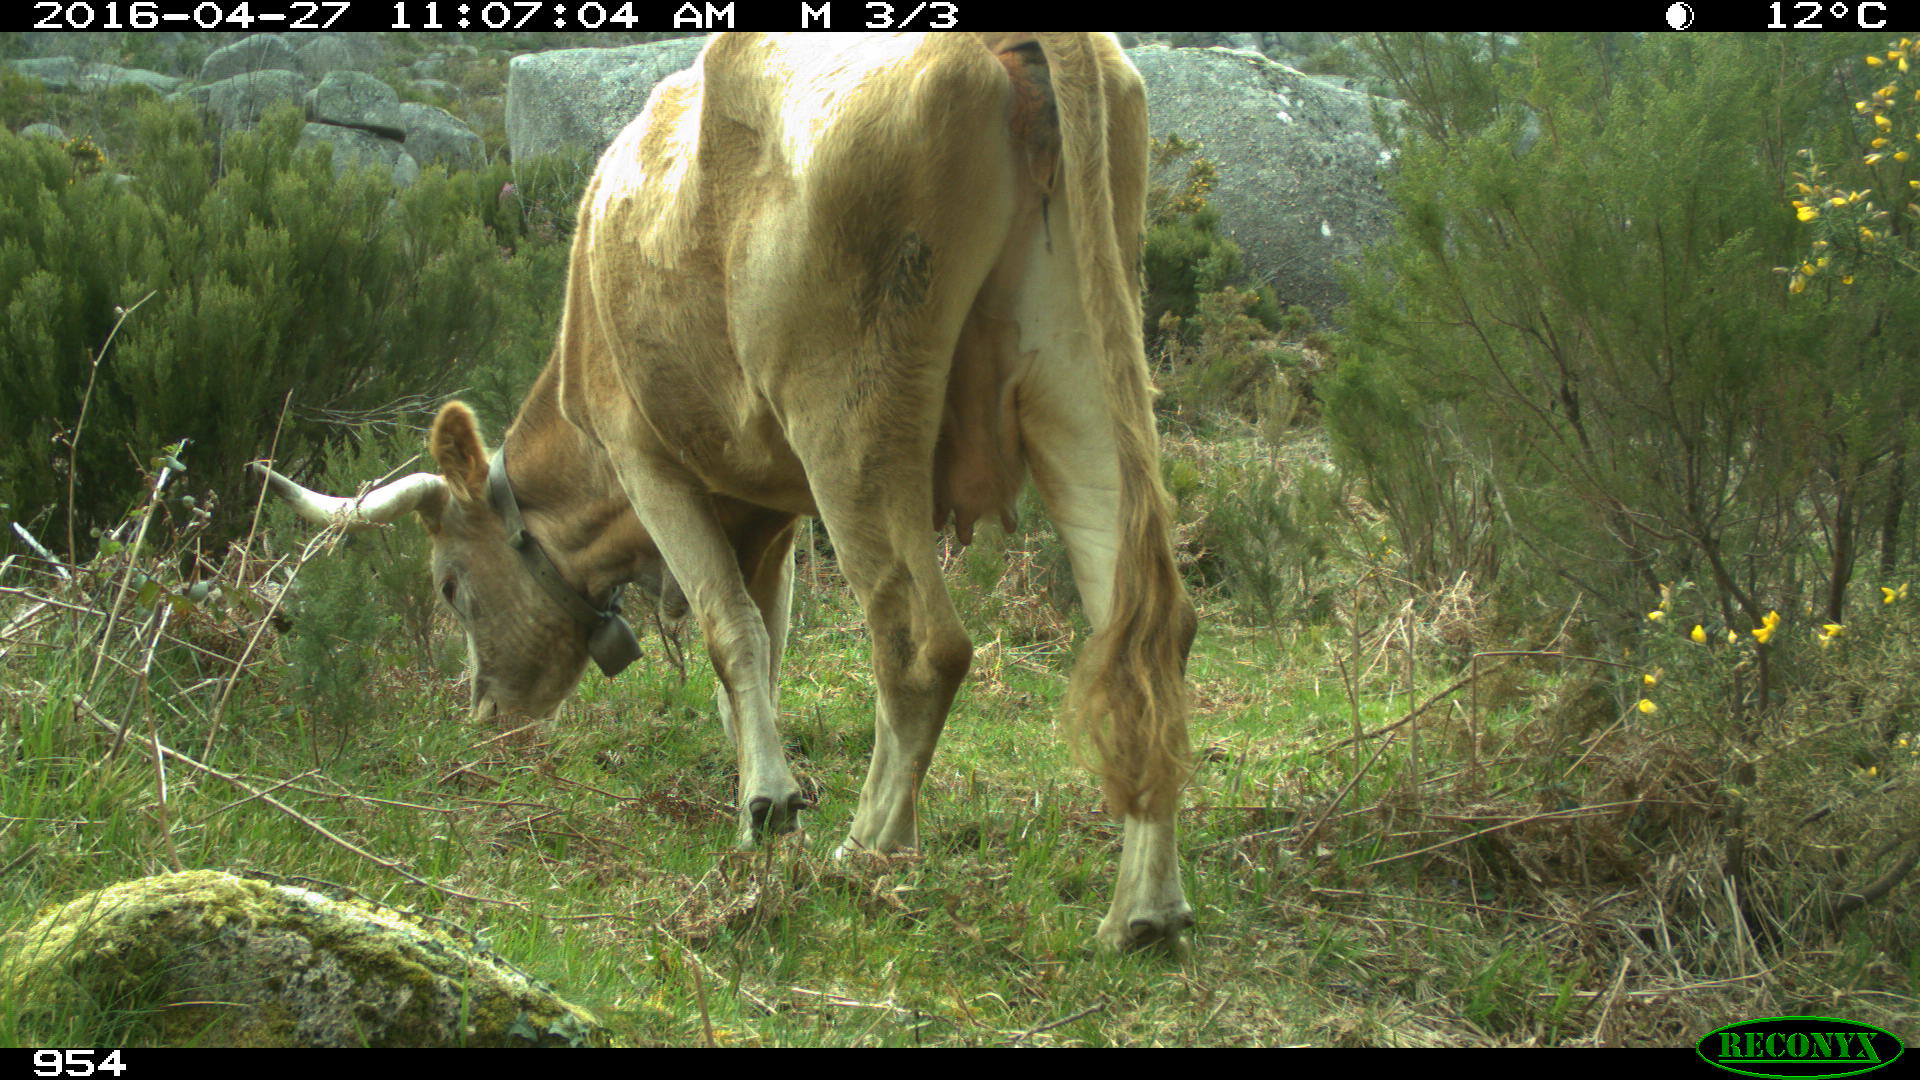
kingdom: Animalia
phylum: Chordata
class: Mammalia
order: Artiodactyla
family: Bovidae
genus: Bos
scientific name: Bos taurus
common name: Domesticated cattle
